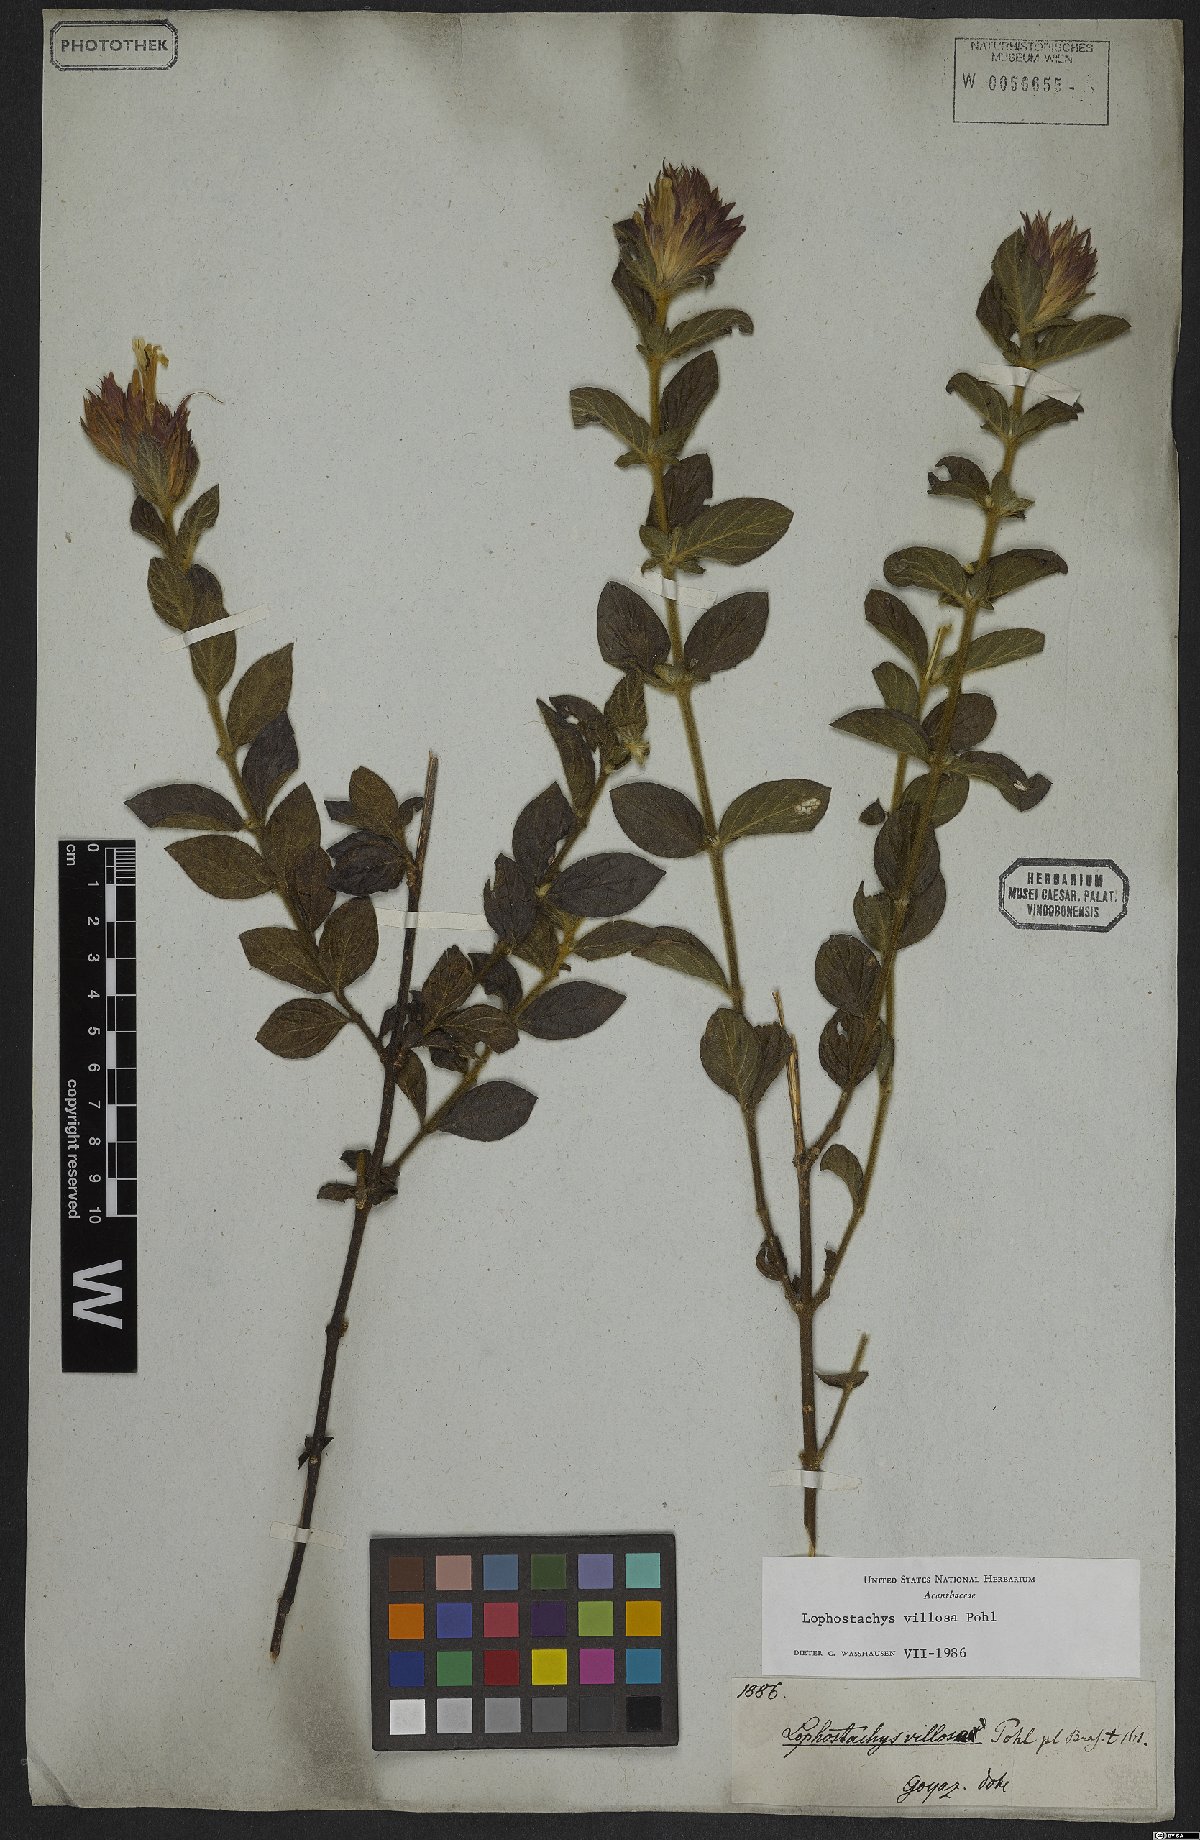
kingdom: Plantae
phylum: Tracheophyta
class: Magnoliopsida
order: Lamiales
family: Acanthaceae
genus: Lepidagathis
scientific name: Lepidagathis montana
